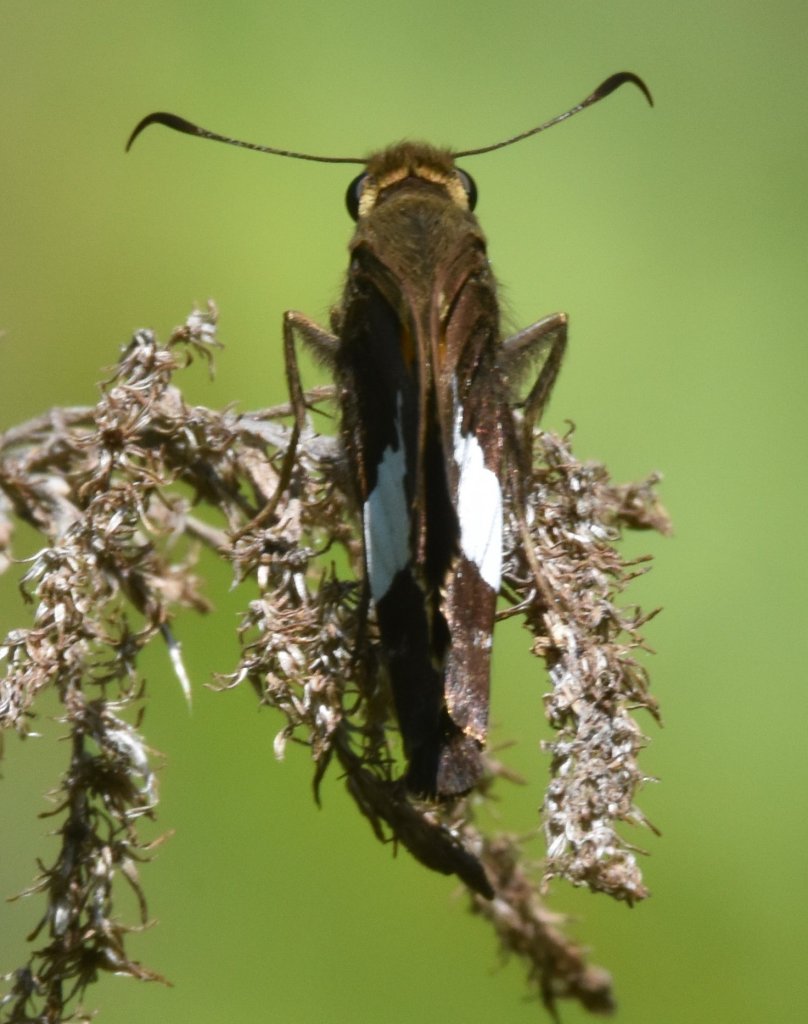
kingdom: Animalia
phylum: Arthropoda
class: Insecta
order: Lepidoptera
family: Hesperiidae
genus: Epargyreus
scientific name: Epargyreus clarus
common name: Silver-spotted Skipper
